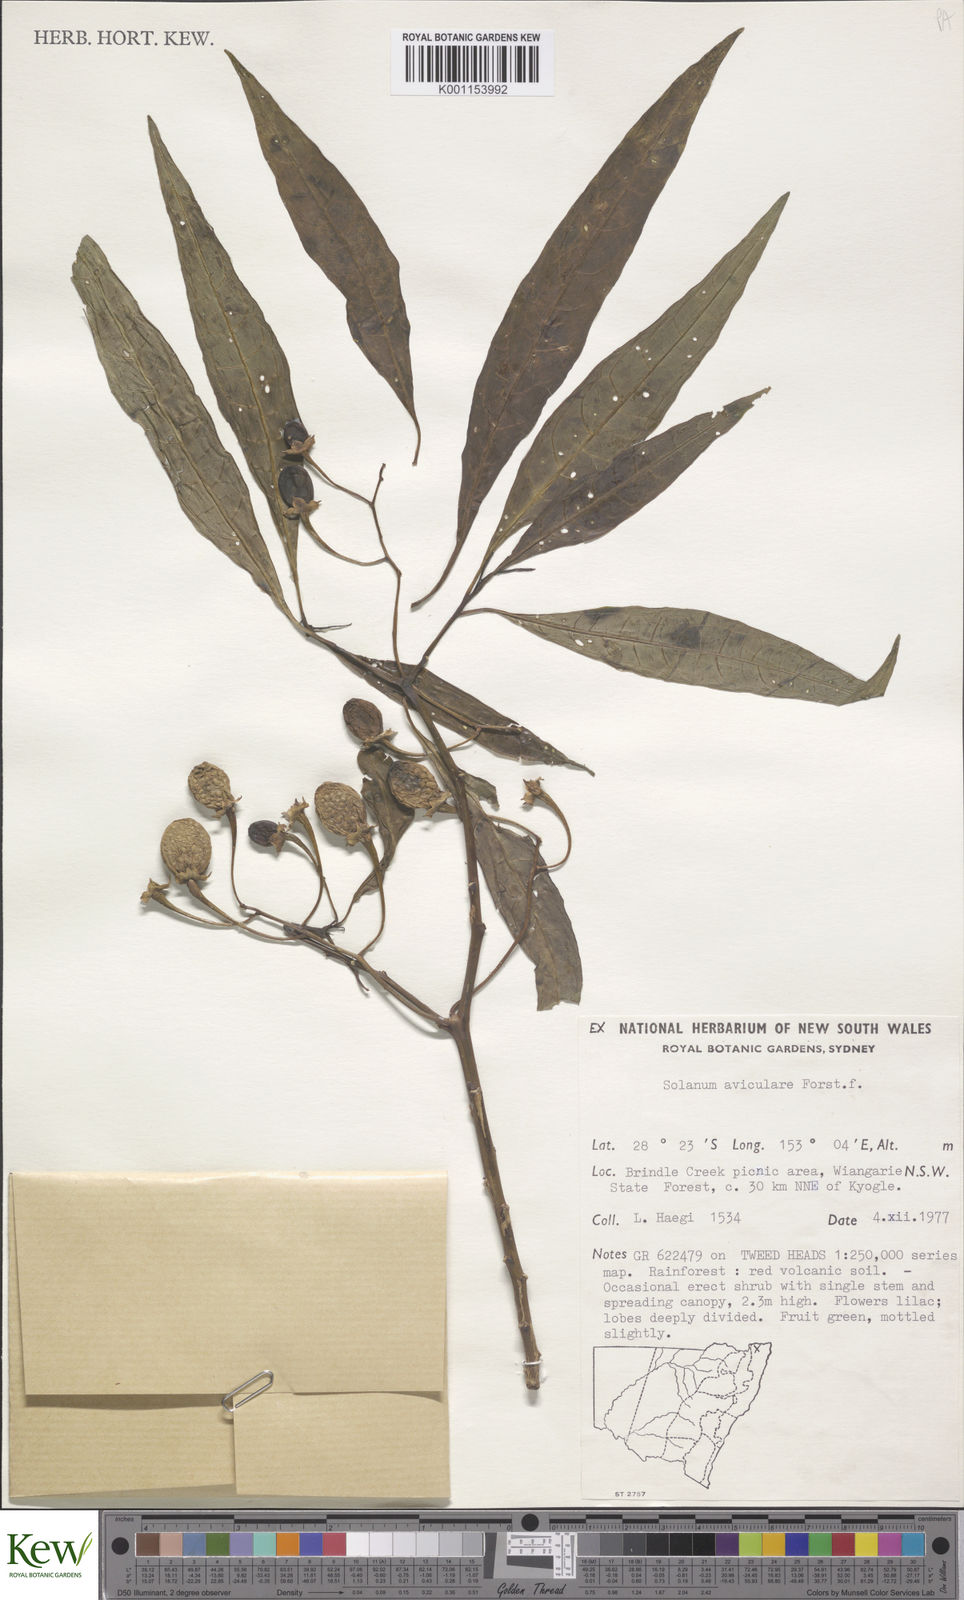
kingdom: Plantae
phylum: Tracheophyta
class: Magnoliopsida
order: Solanales
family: Solanaceae
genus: Solanum
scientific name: Solanum aviculare
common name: New zealand nightshade
